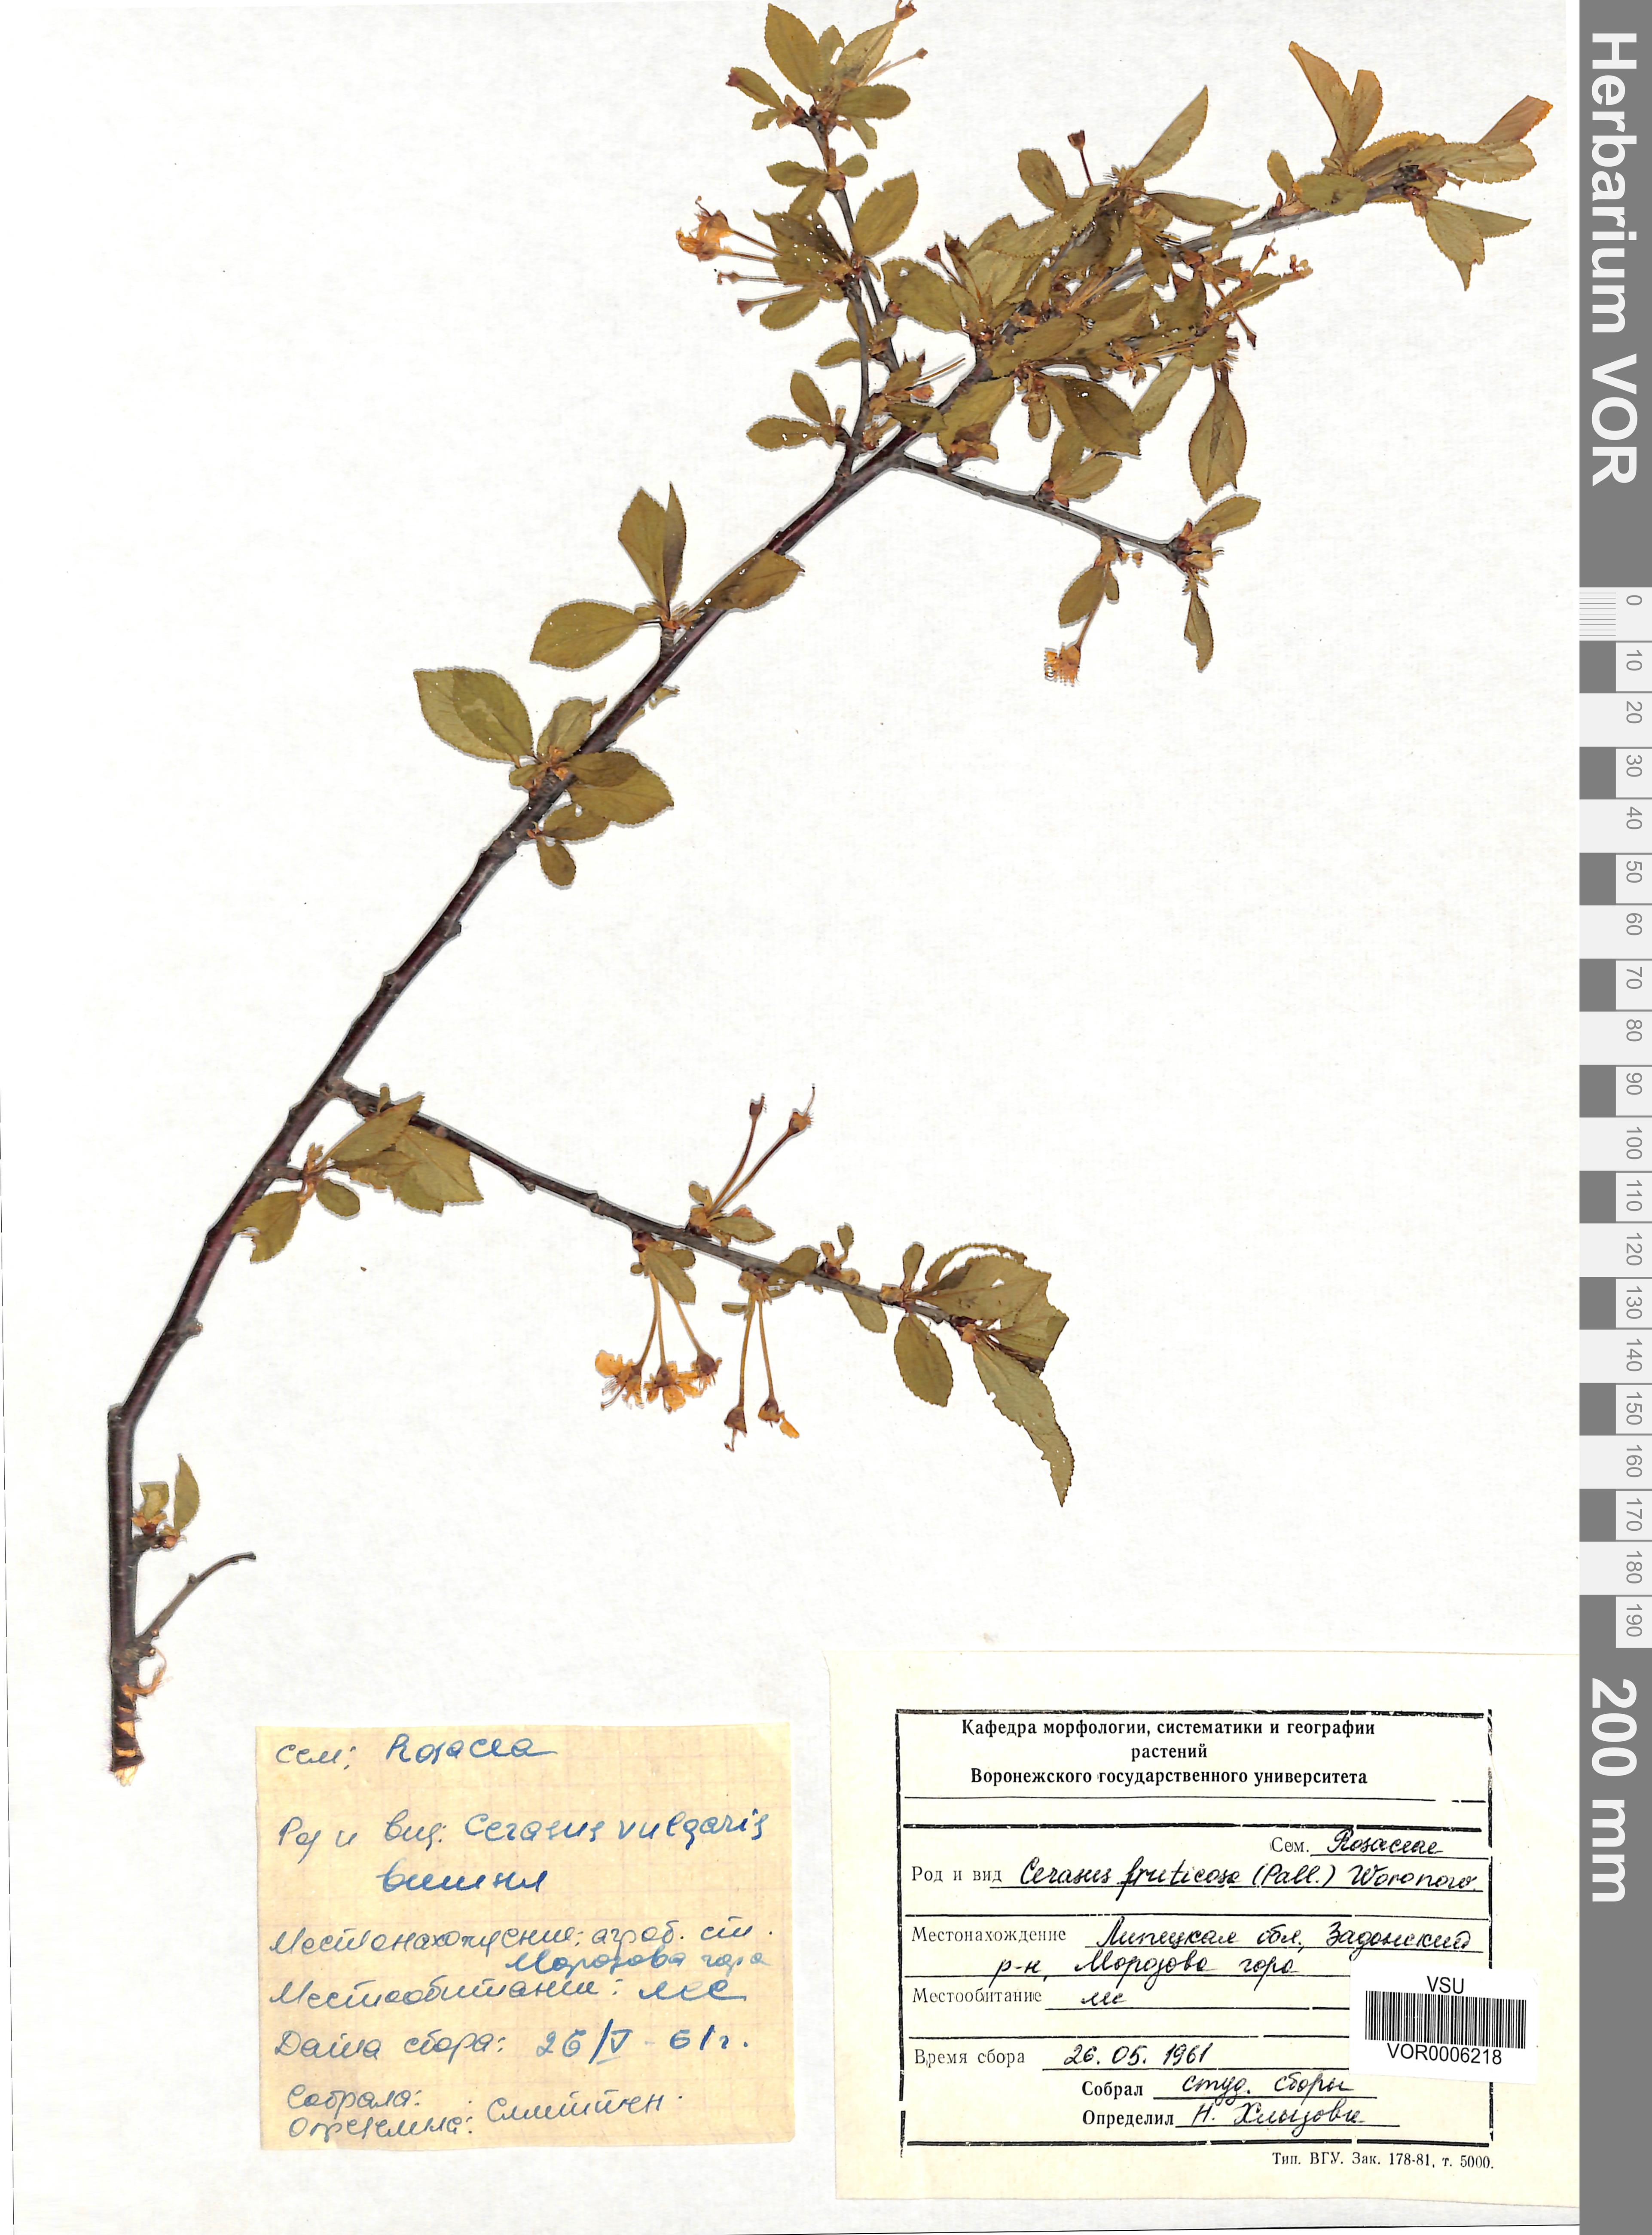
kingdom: Plantae
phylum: Tracheophyta
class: Magnoliopsida
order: Rosales
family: Rosaceae
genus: Prunus
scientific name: Prunus fruticosa
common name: European dwarf cherry
